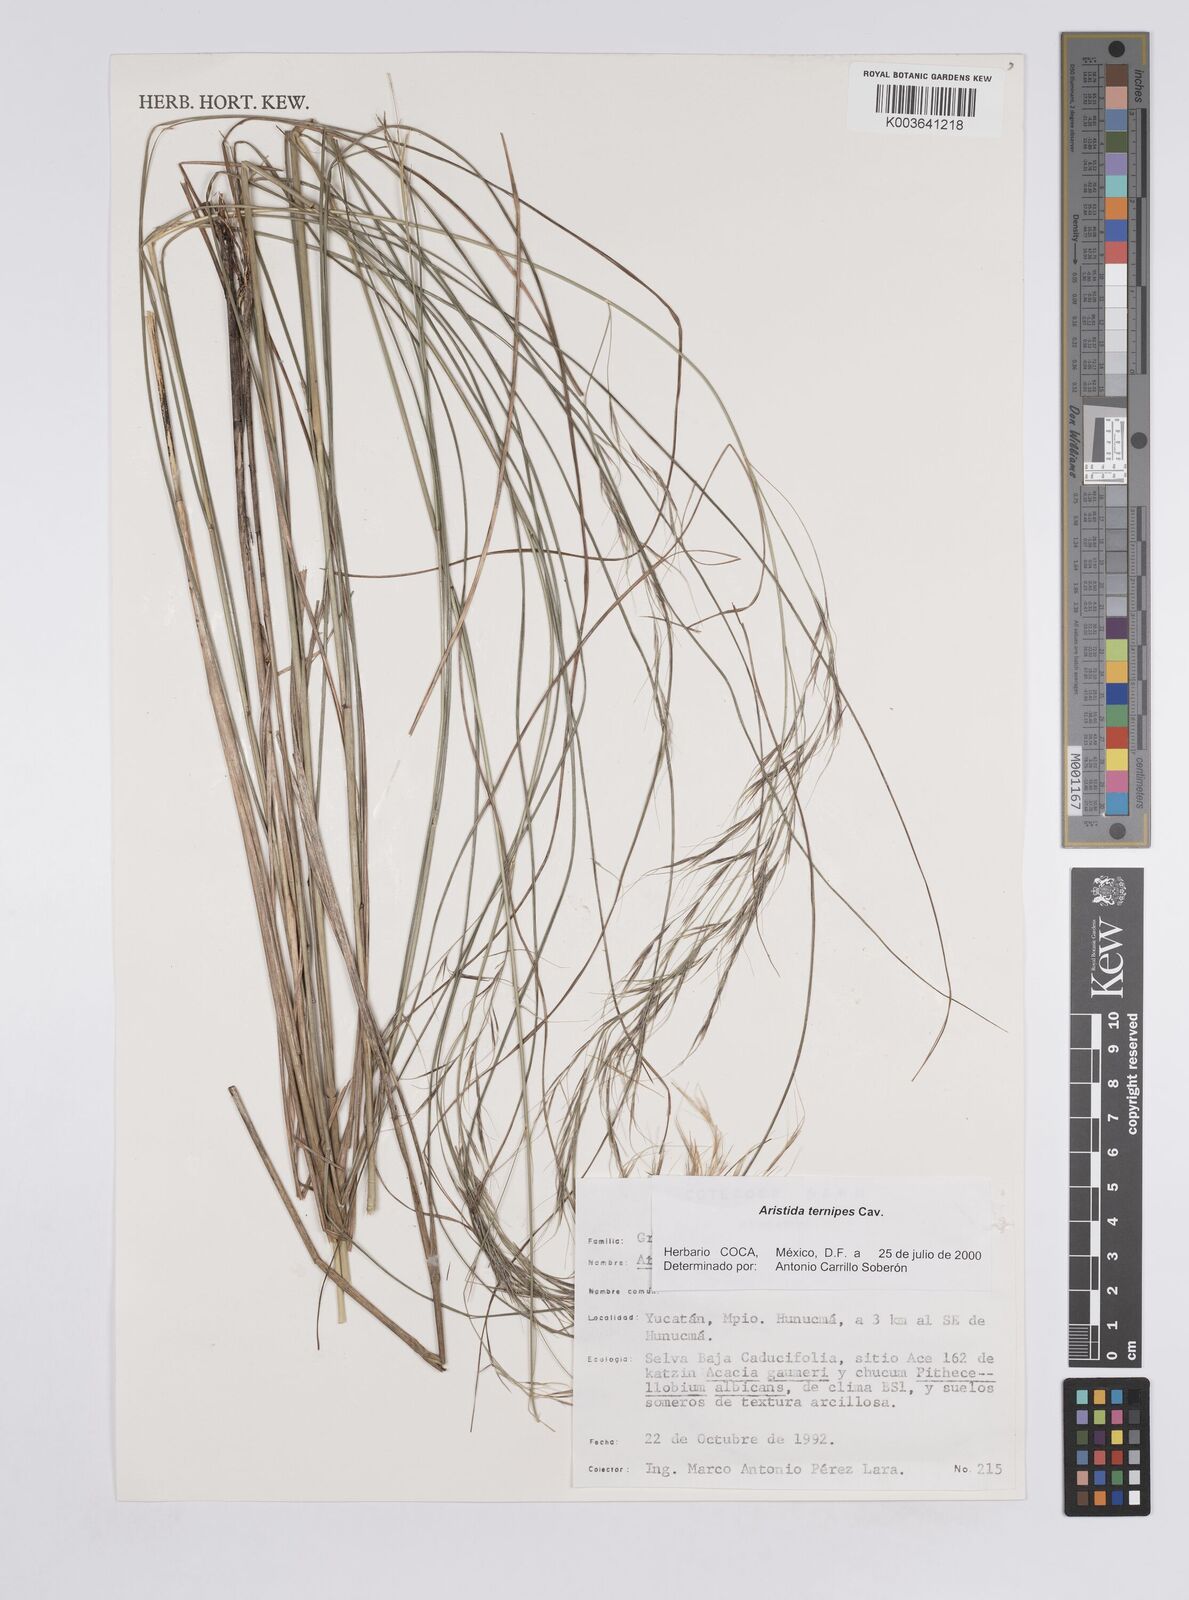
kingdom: Plantae
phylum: Tracheophyta
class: Liliopsida
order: Poales
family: Poaceae
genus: Aristida
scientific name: Aristida
